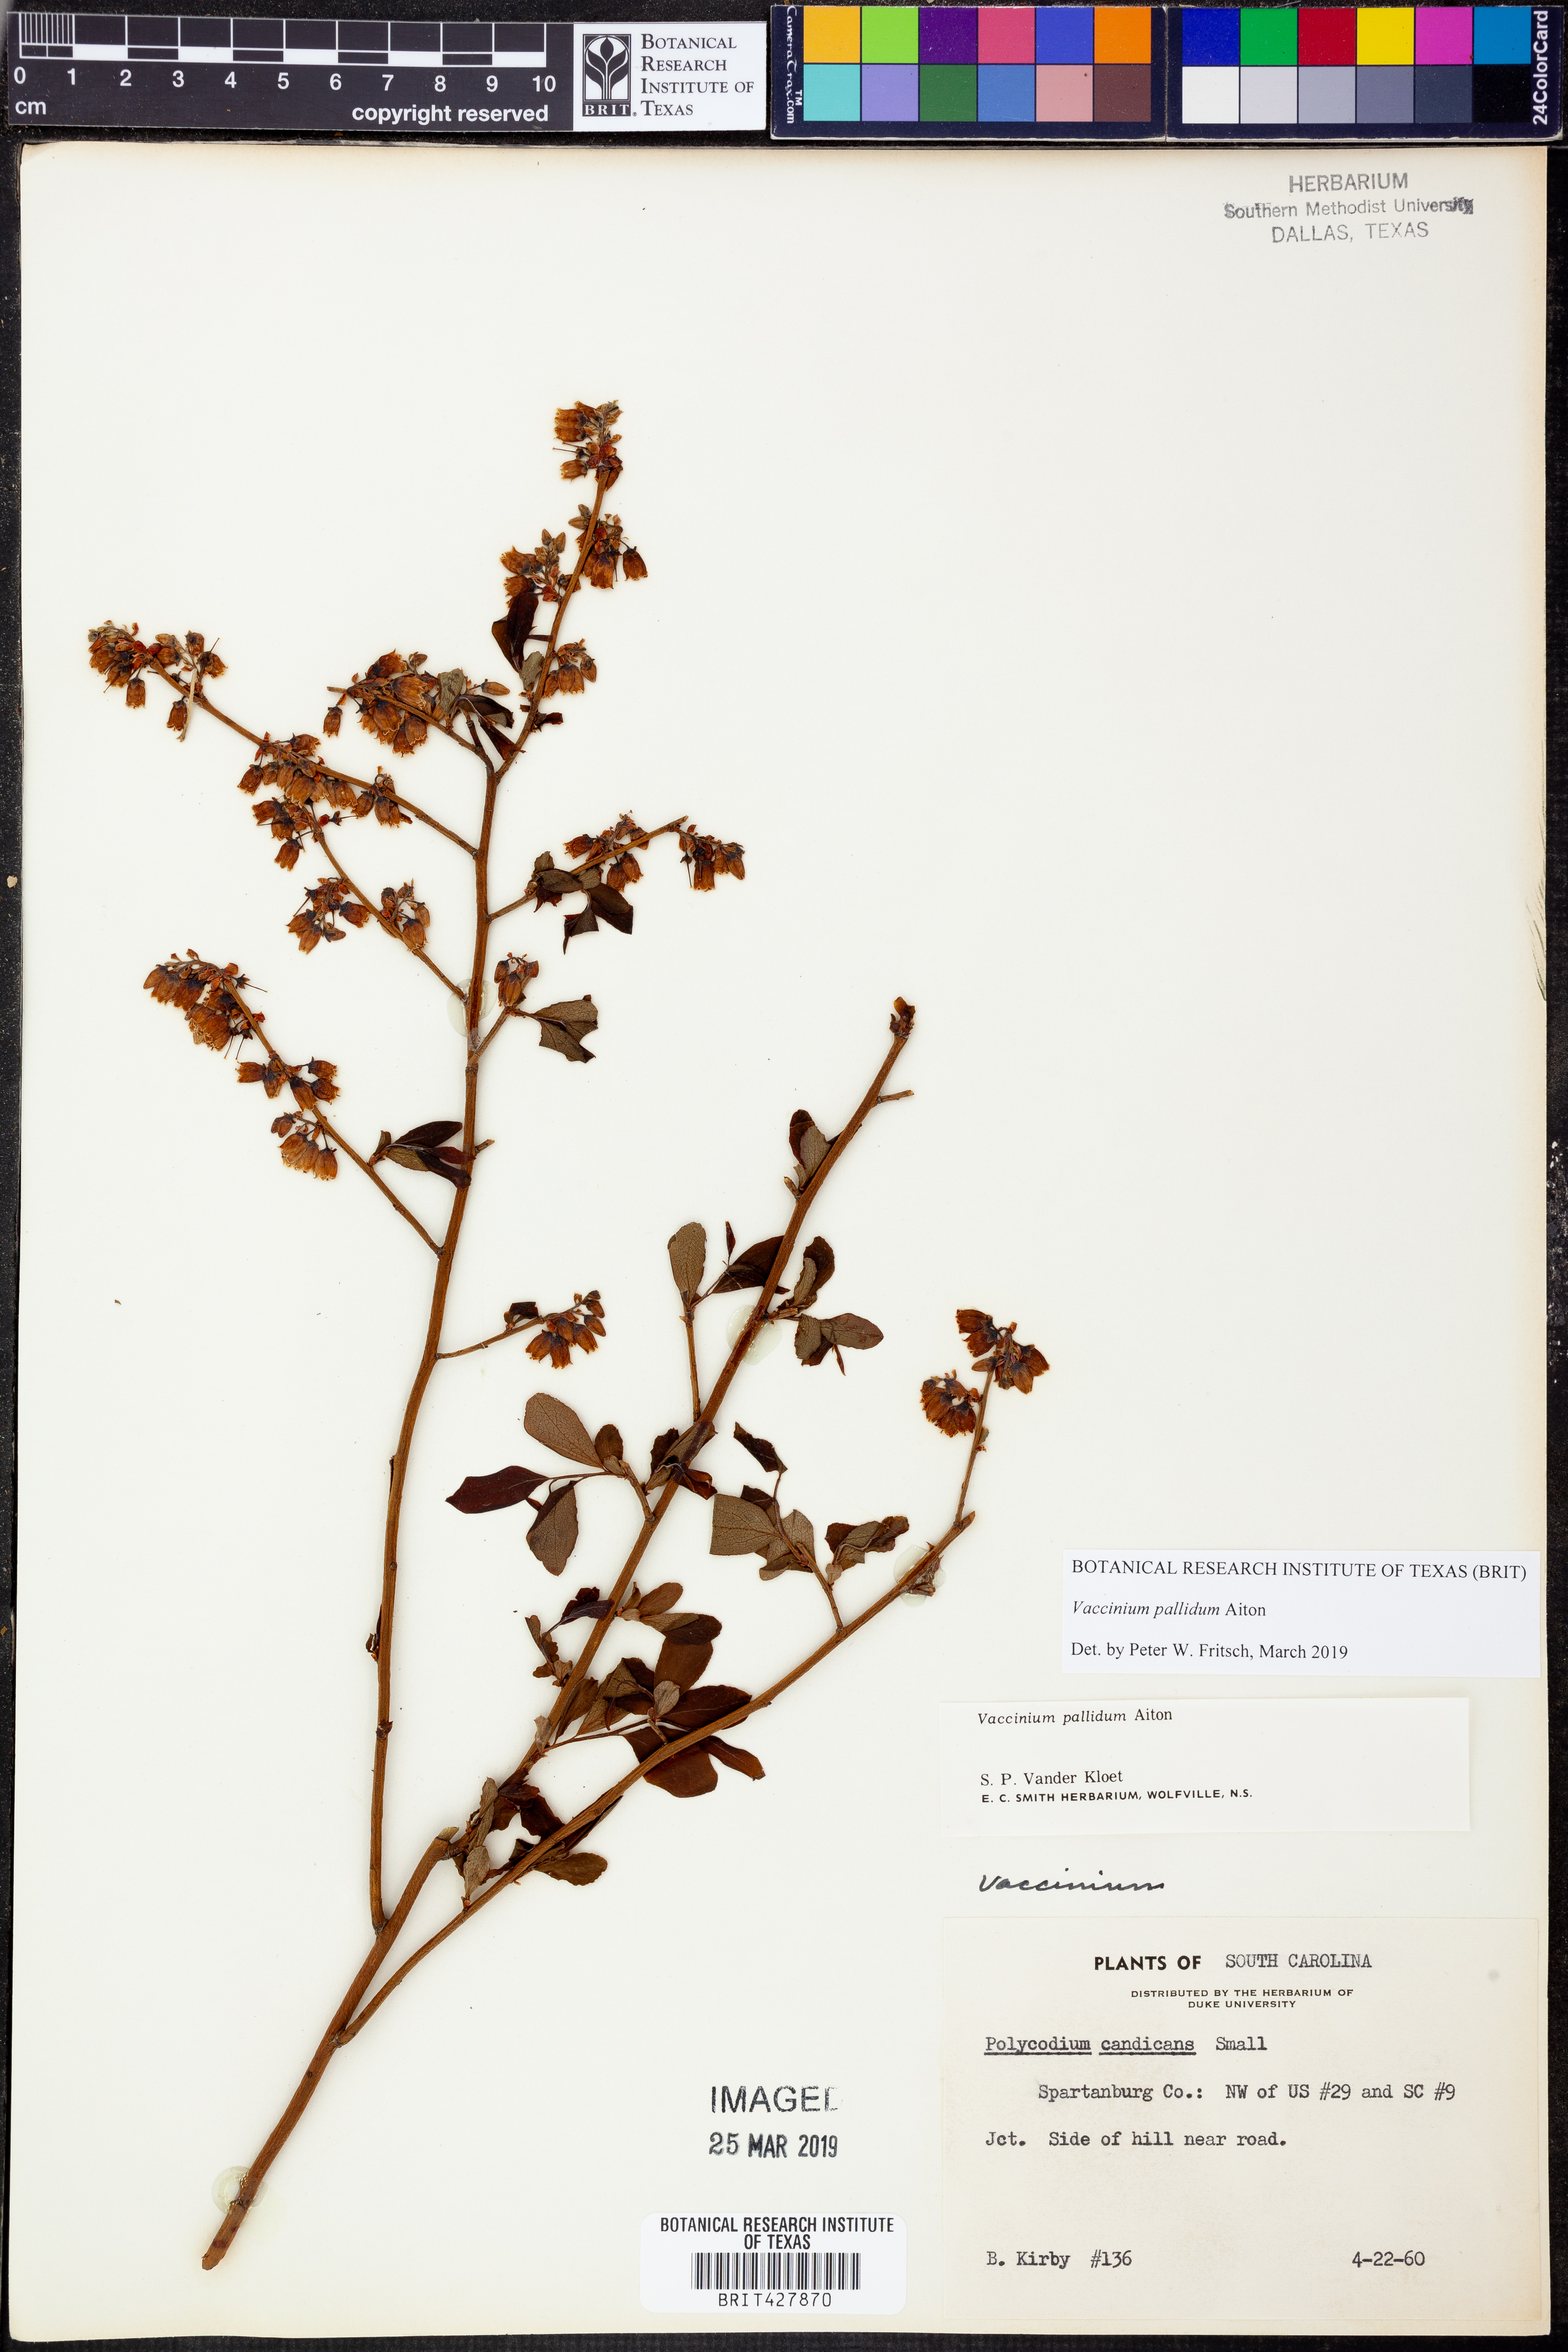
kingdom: Plantae
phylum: Tracheophyta
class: Magnoliopsida
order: Ericales
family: Ericaceae
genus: Vaccinium
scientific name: Vaccinium pallidum
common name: Blue ridge blueberry
